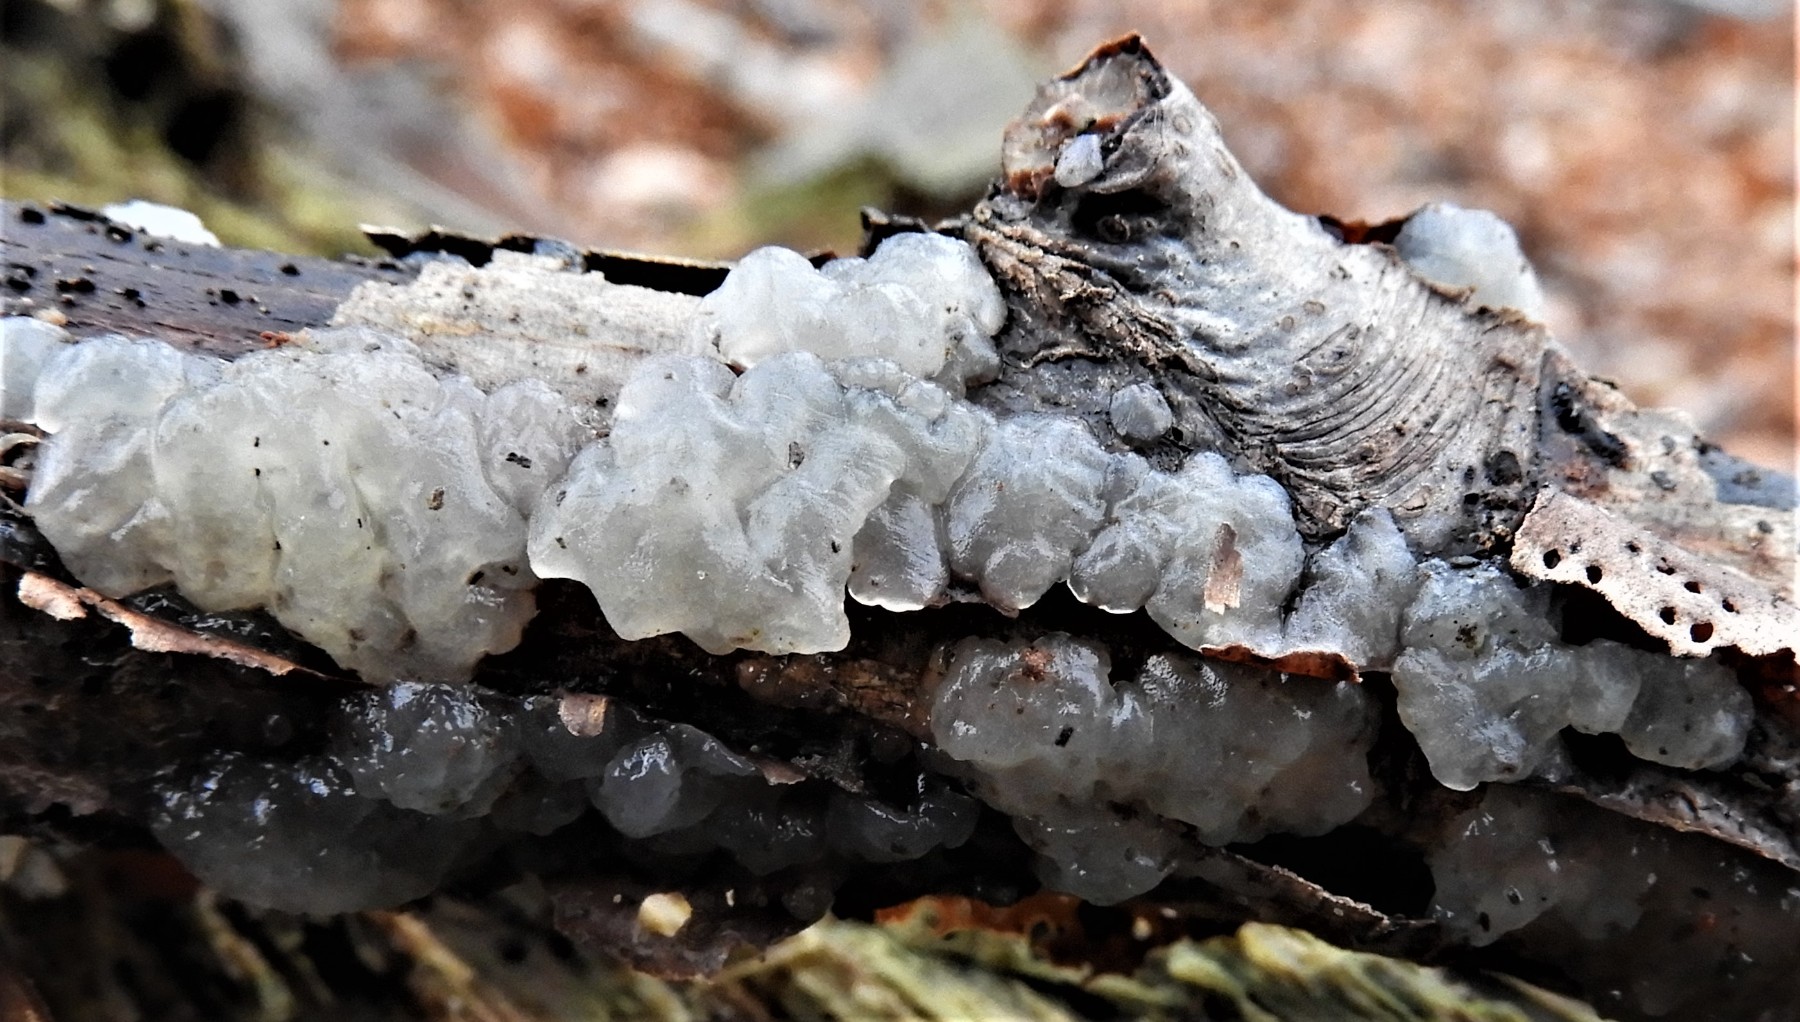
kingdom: Fungi
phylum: Basidiomycota
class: Agaricomycetes
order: Auriculariales
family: Hyaloriaceae
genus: Myxarium
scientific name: Myxarium nucleatum
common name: klar bævretop
